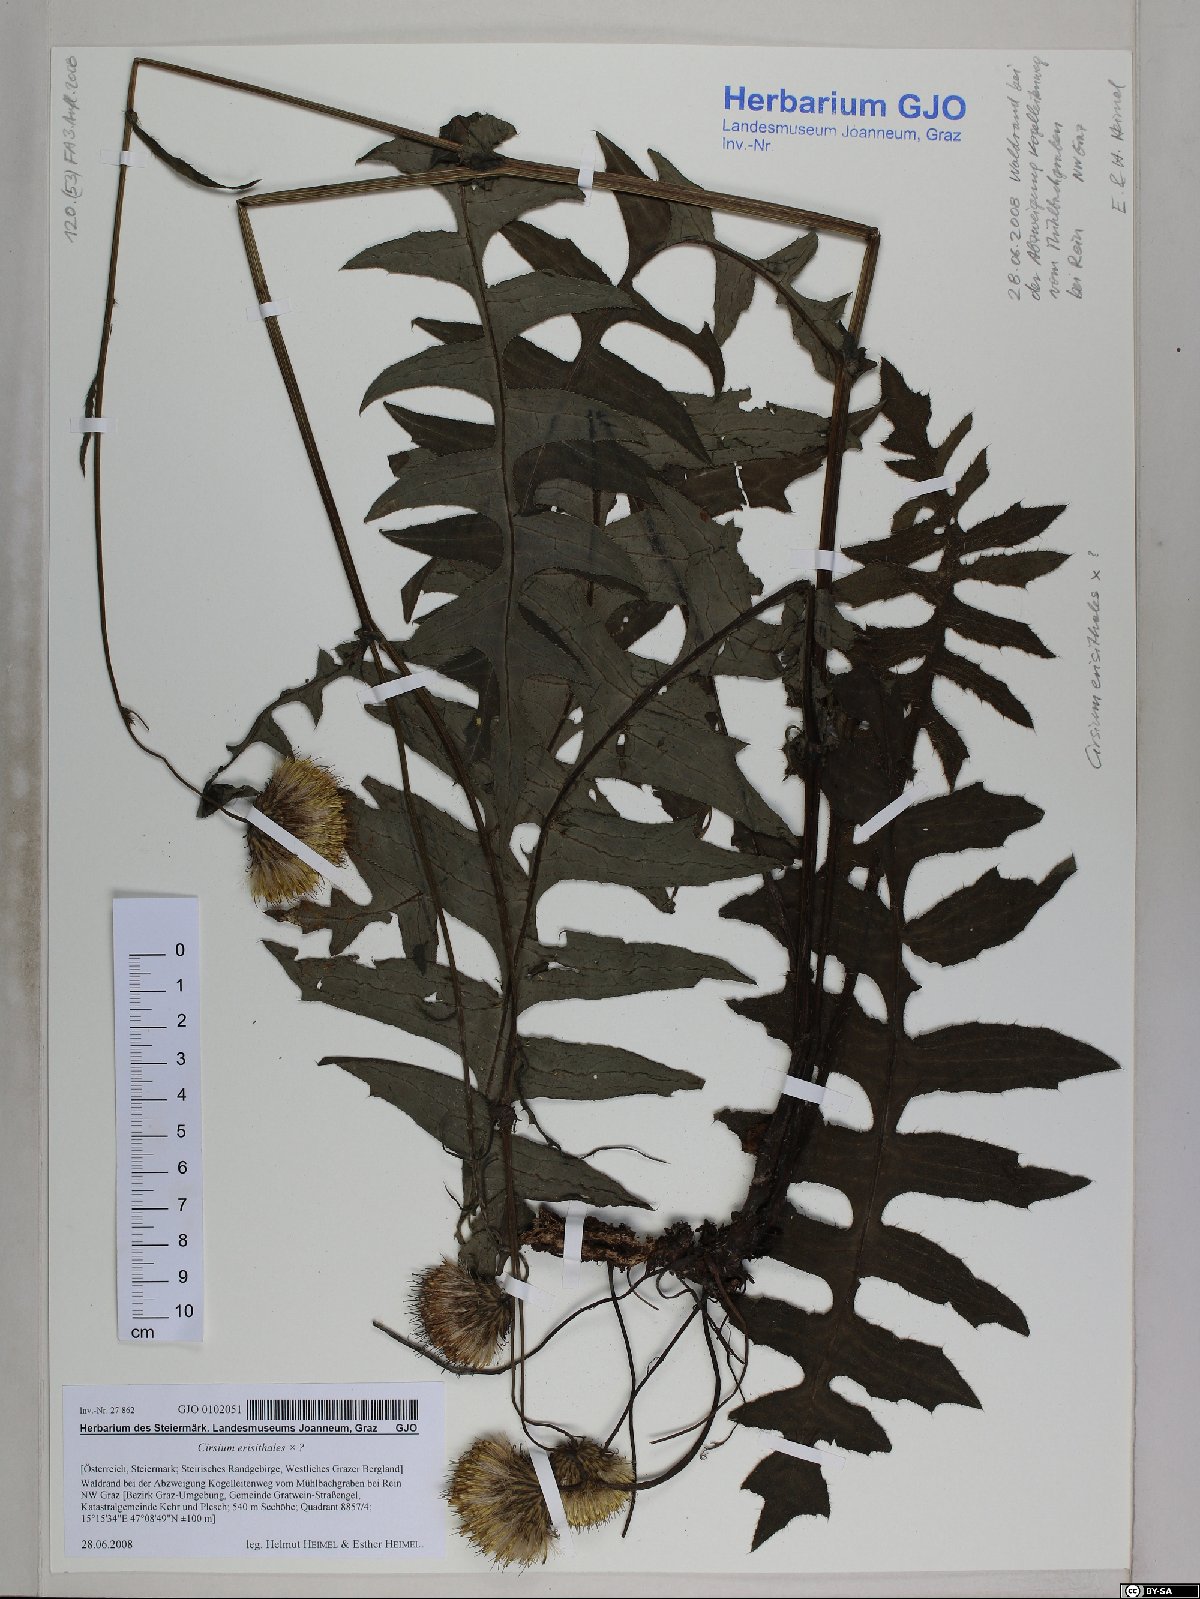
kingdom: Plantae
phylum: Tracheophyta
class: Magnoliopsida
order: Asterales
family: Asteraceae
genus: Cirsium
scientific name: Cirsium erisithales
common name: Yellow thistle
